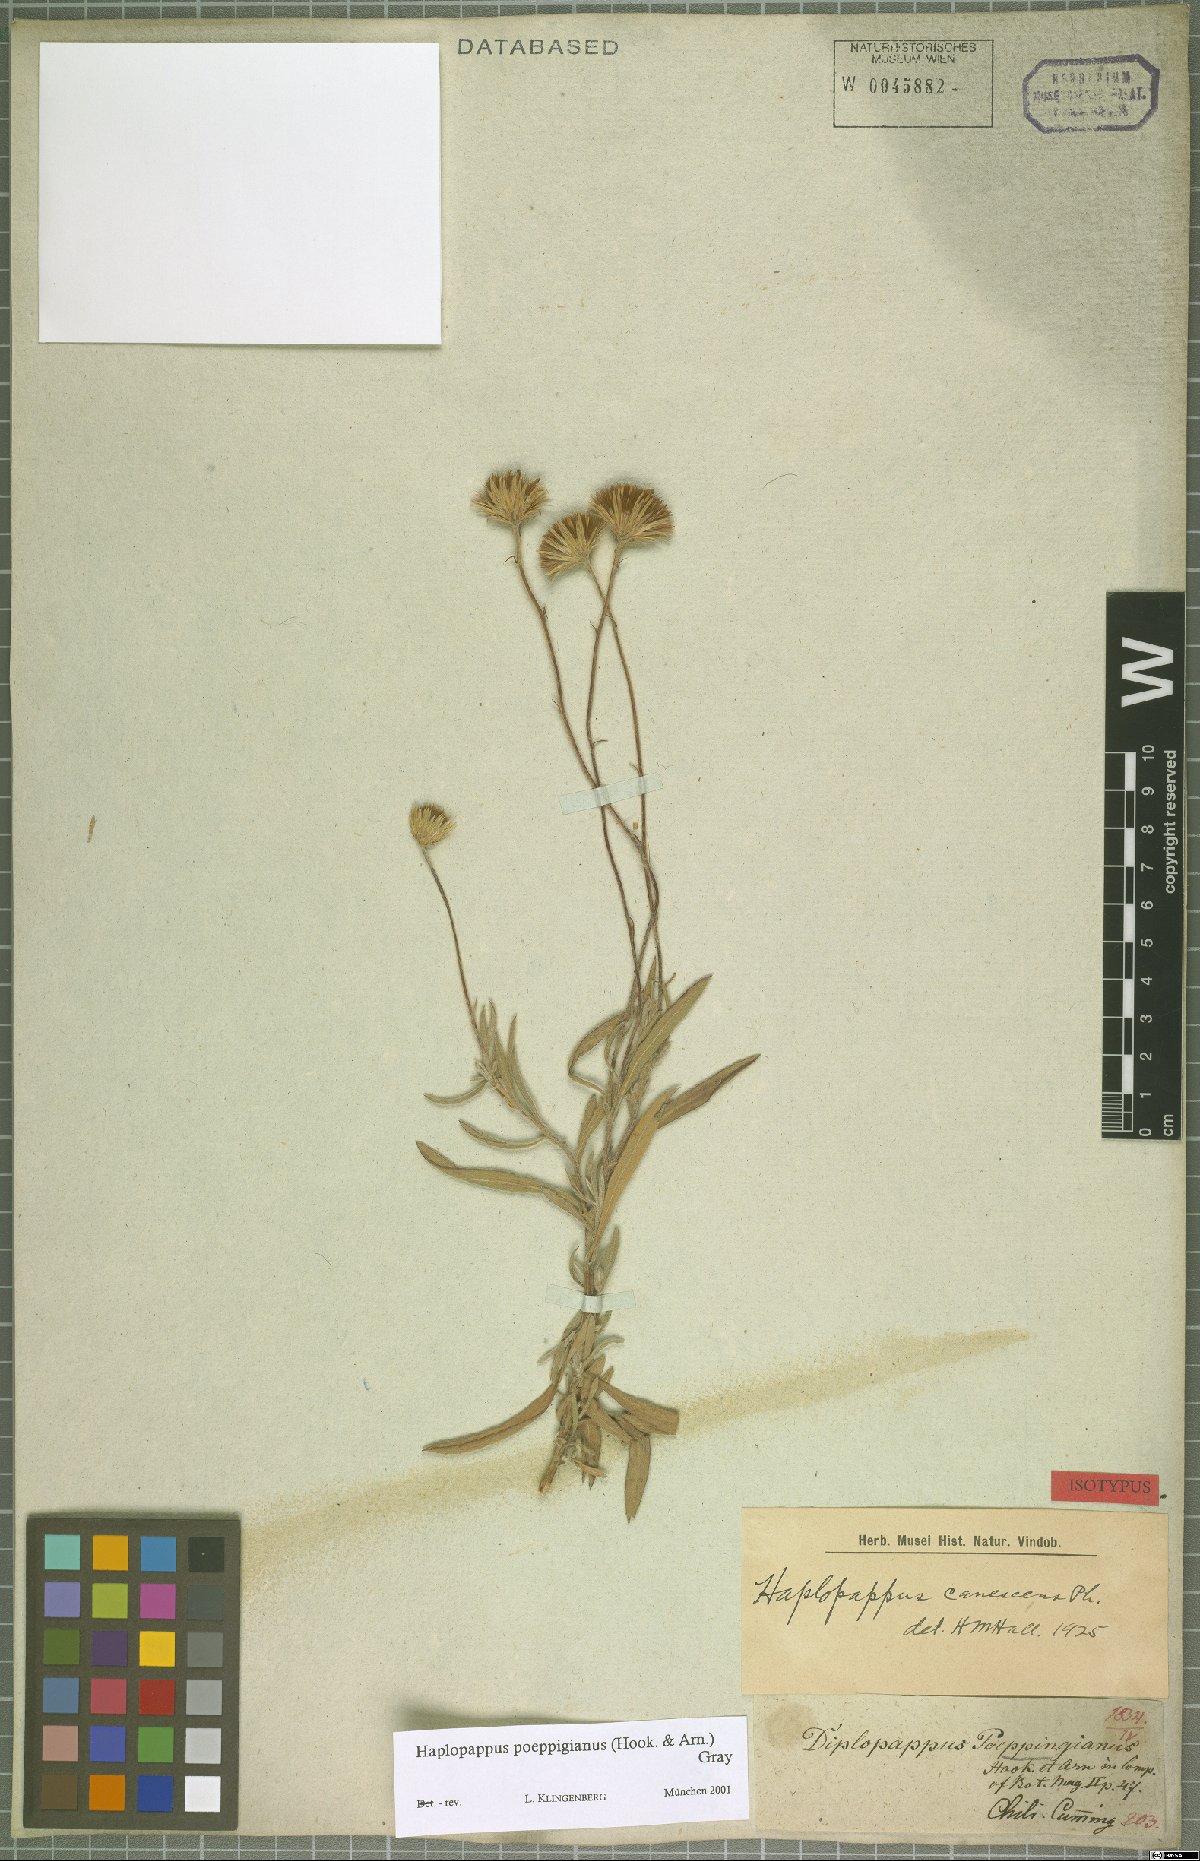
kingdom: Plantae
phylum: Tracheophyta
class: Magnoliopsida
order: Asterales
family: Asteraceae
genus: Haplopappus
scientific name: Haplopappus poeppigianus
